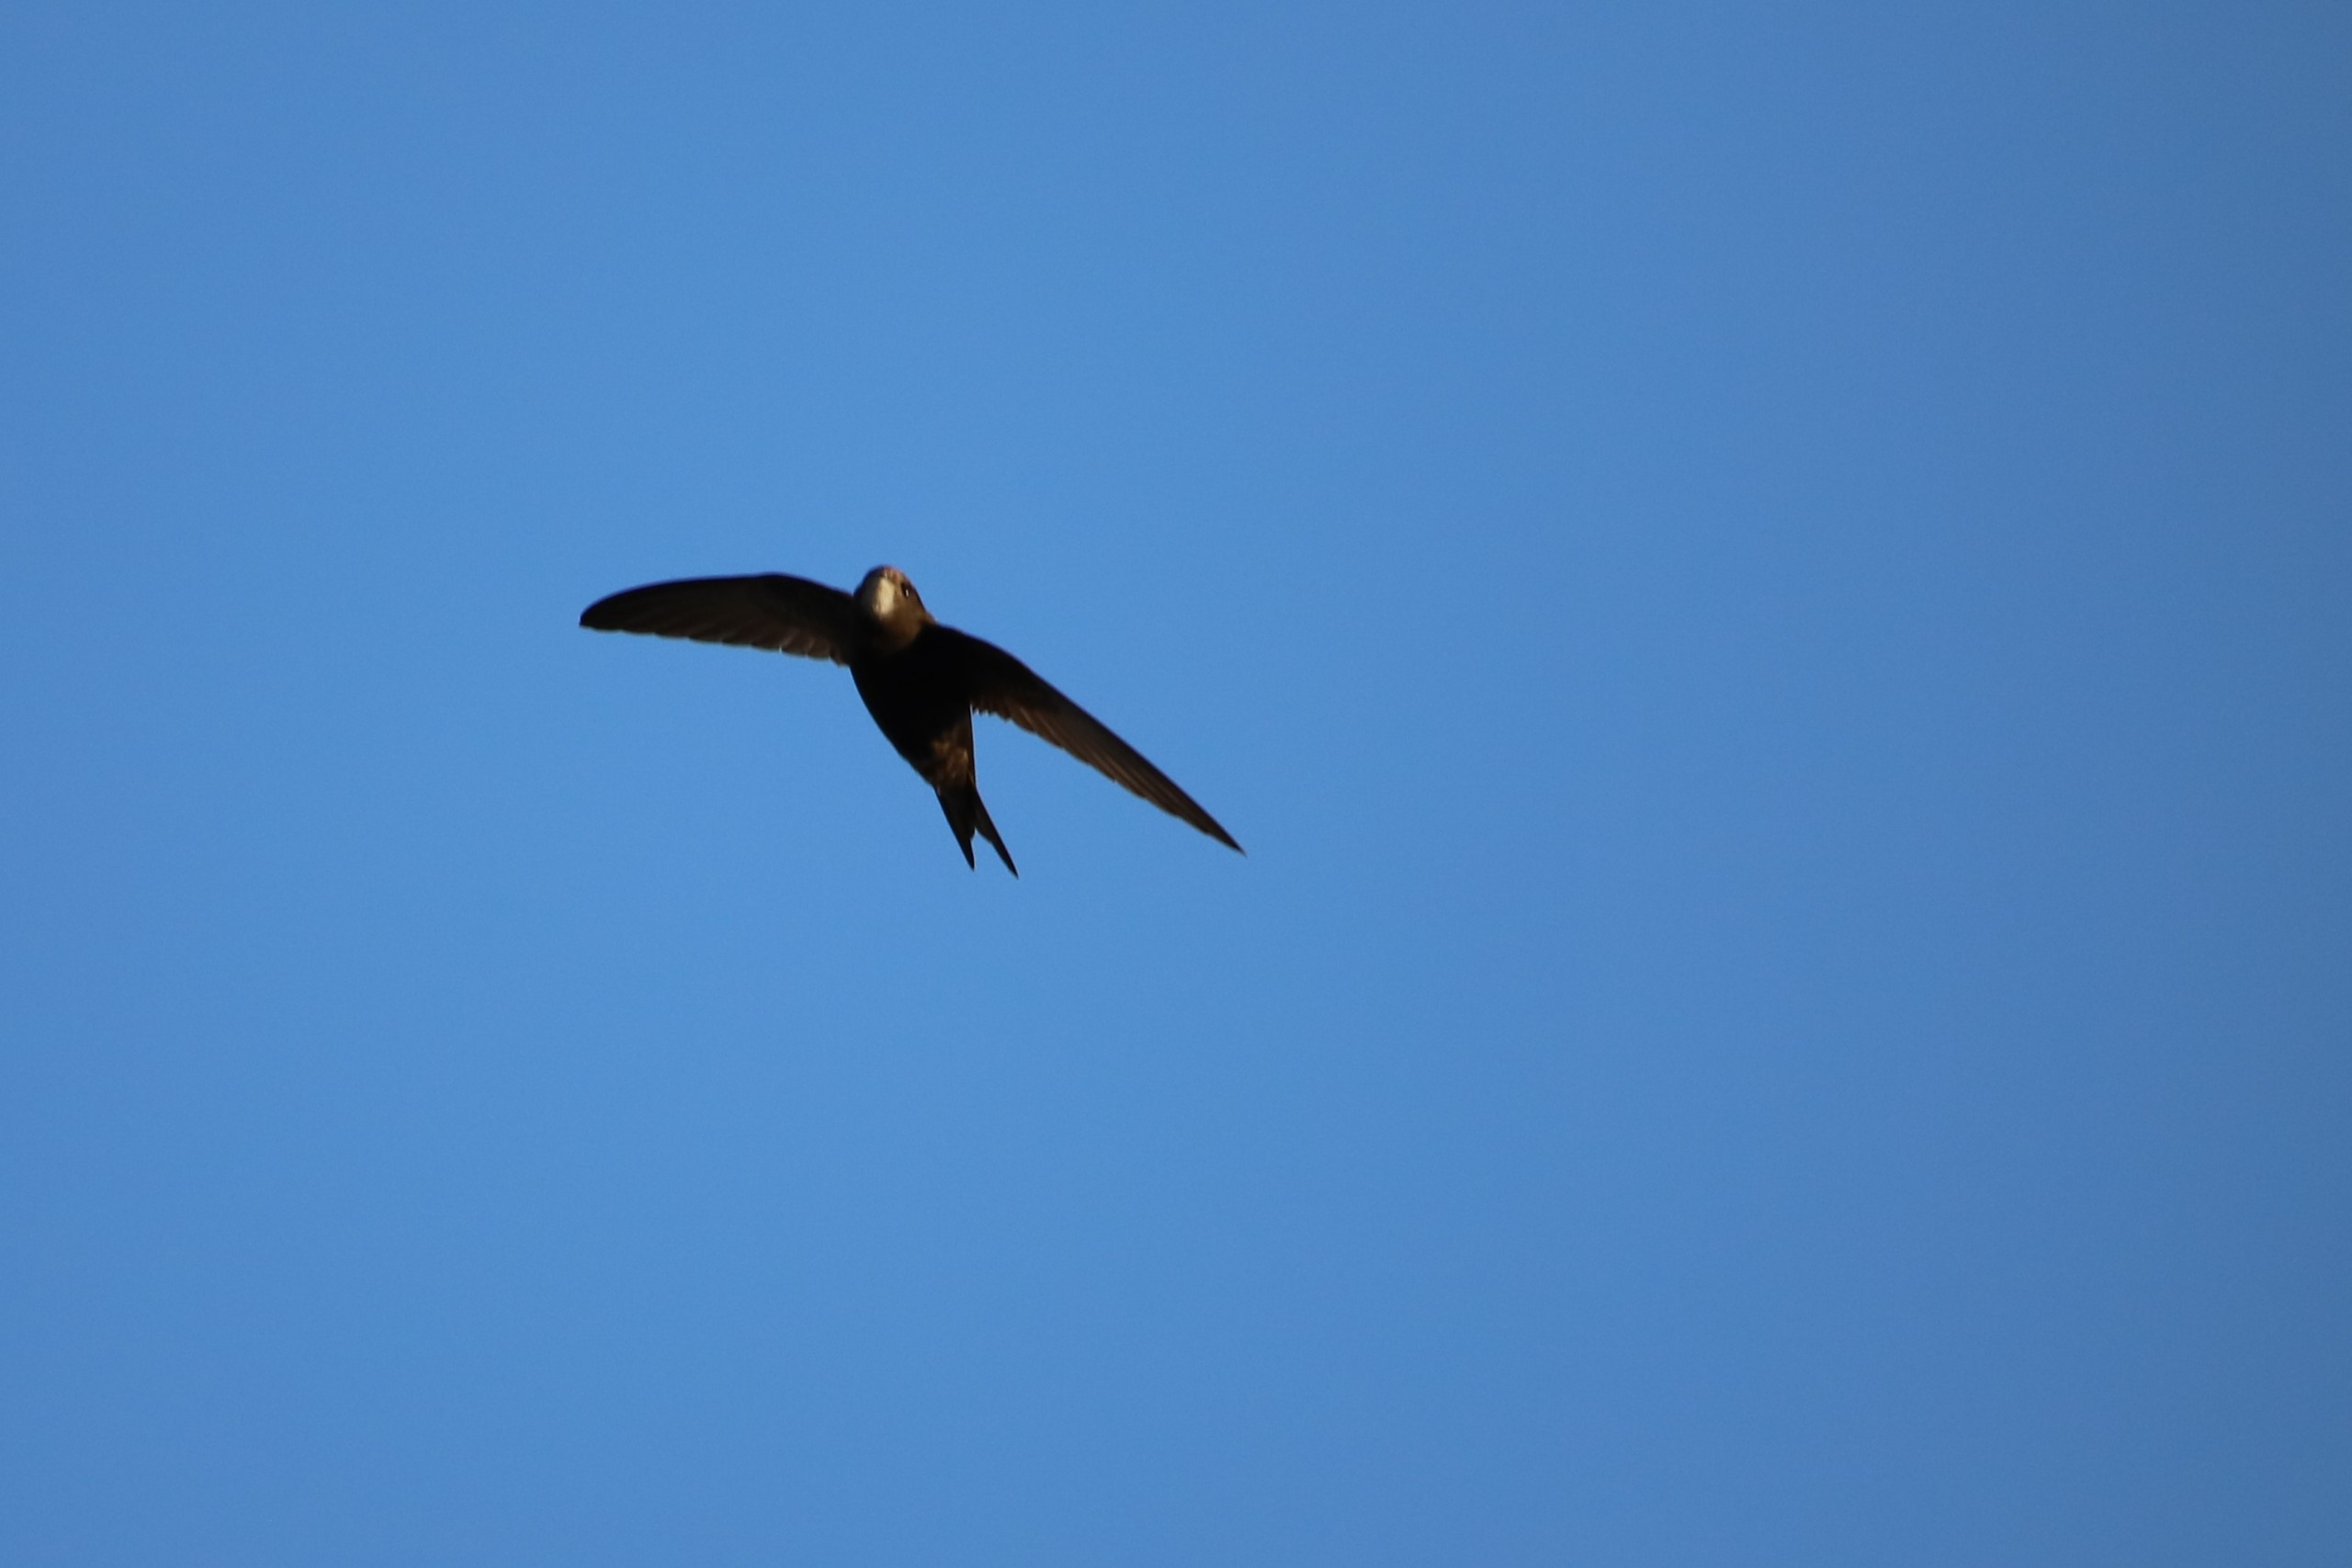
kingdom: Animalia
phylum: Chordata
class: Aves
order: Apodiformes
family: Apodidae
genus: Apus
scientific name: Apus apus
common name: Mursejler
